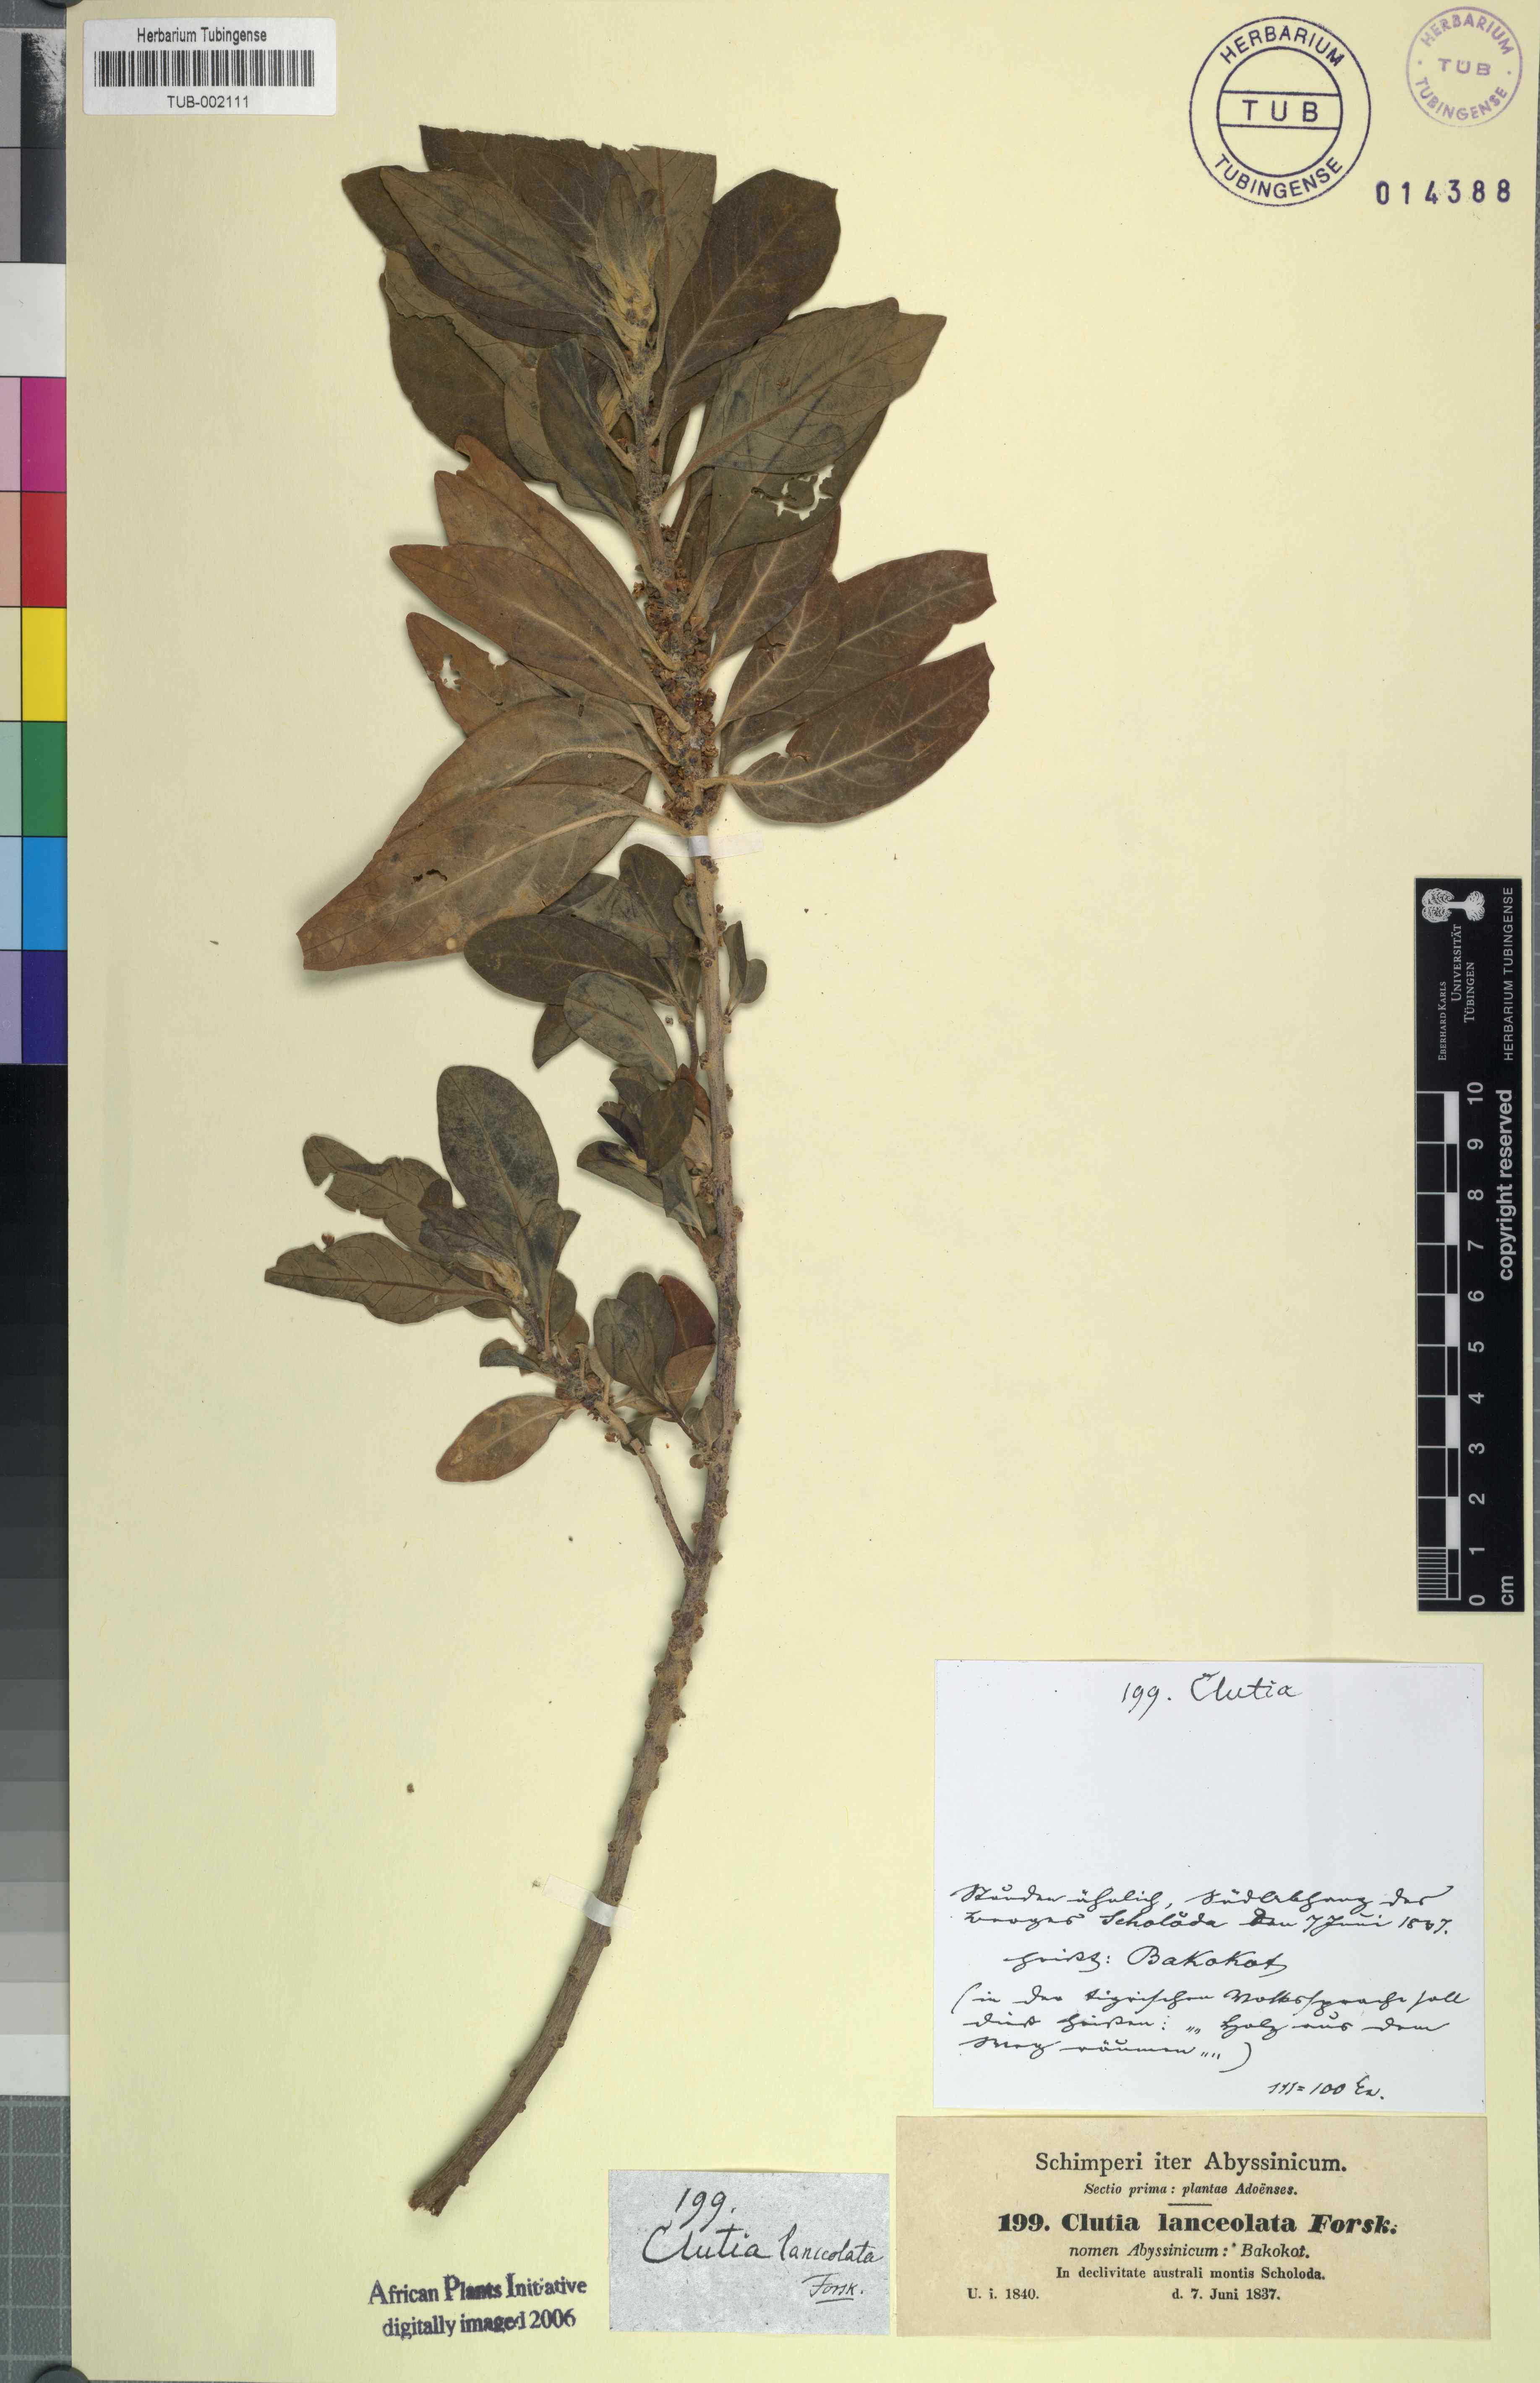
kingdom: Plantae
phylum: Tracheophyta
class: Magnoliopsida
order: Malpighiales
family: Peraceae
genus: Clutia
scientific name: Clutia lanceolata
